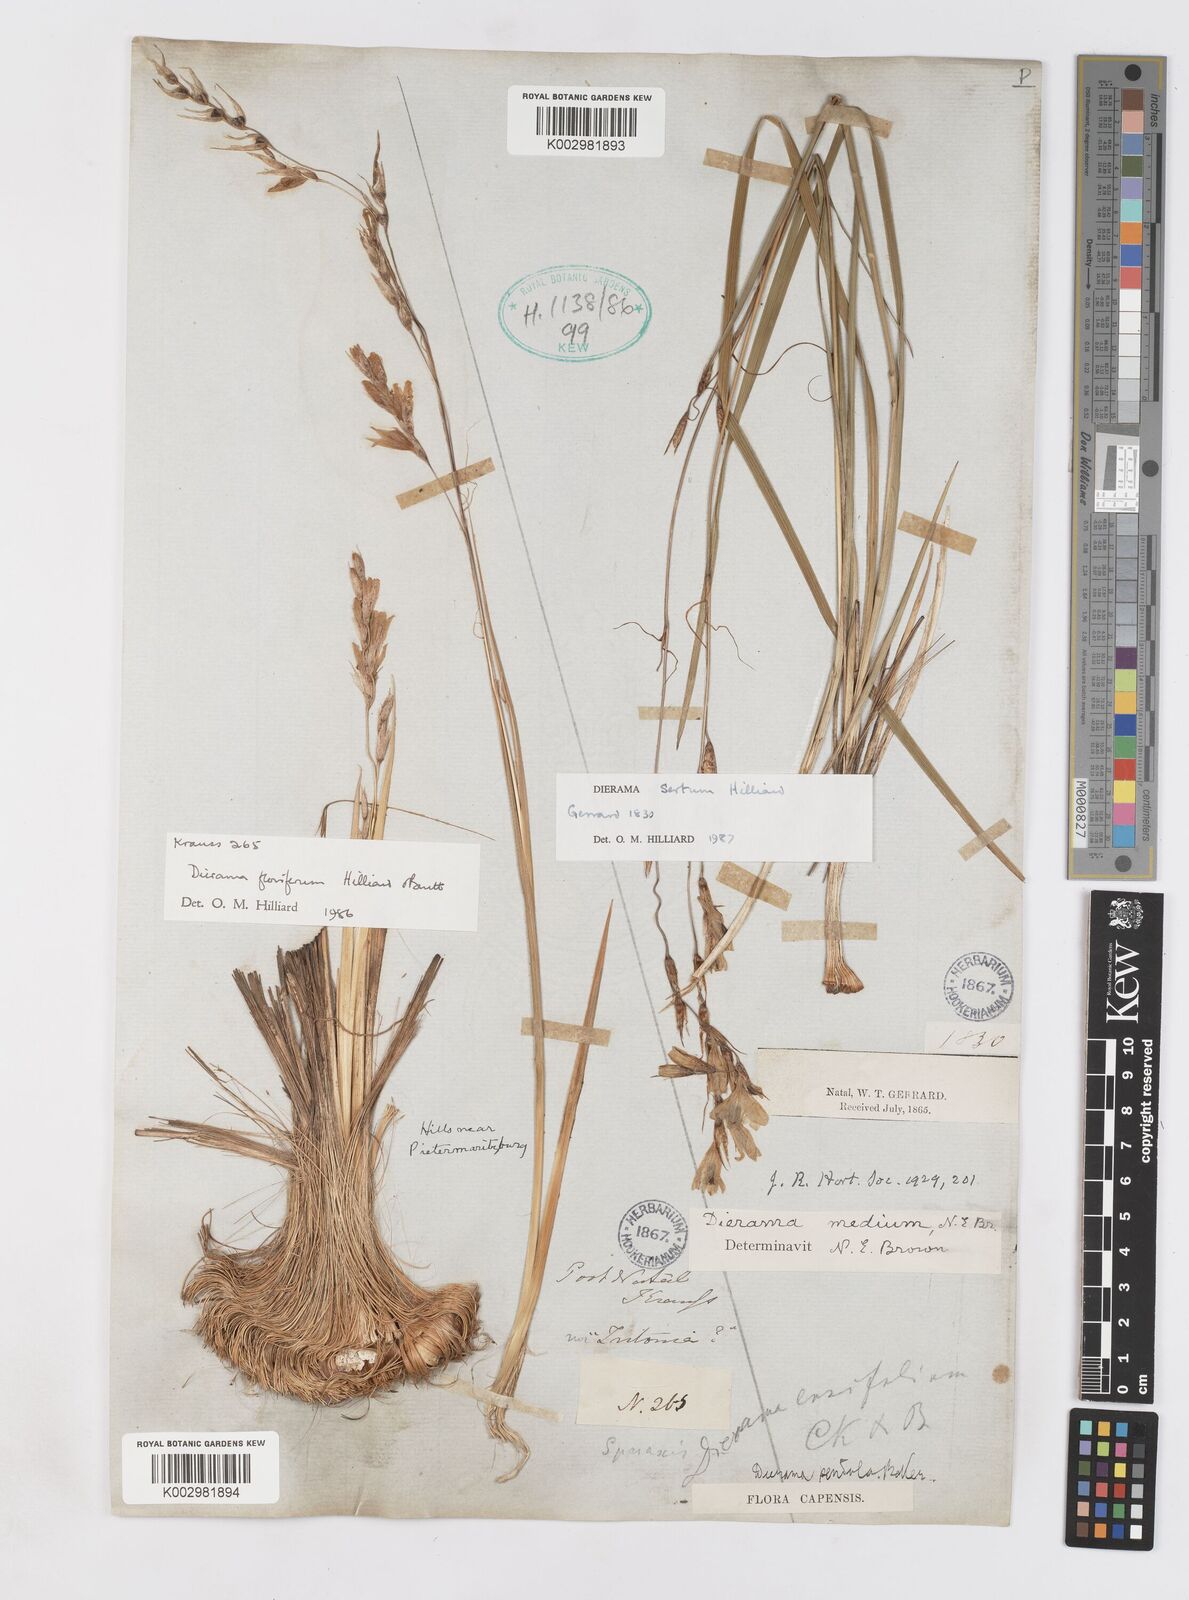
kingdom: Plantae
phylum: Tracheophyta
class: Liliopsida
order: Asparagales
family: Iridaceae
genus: Dierama
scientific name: Dierama sertum
